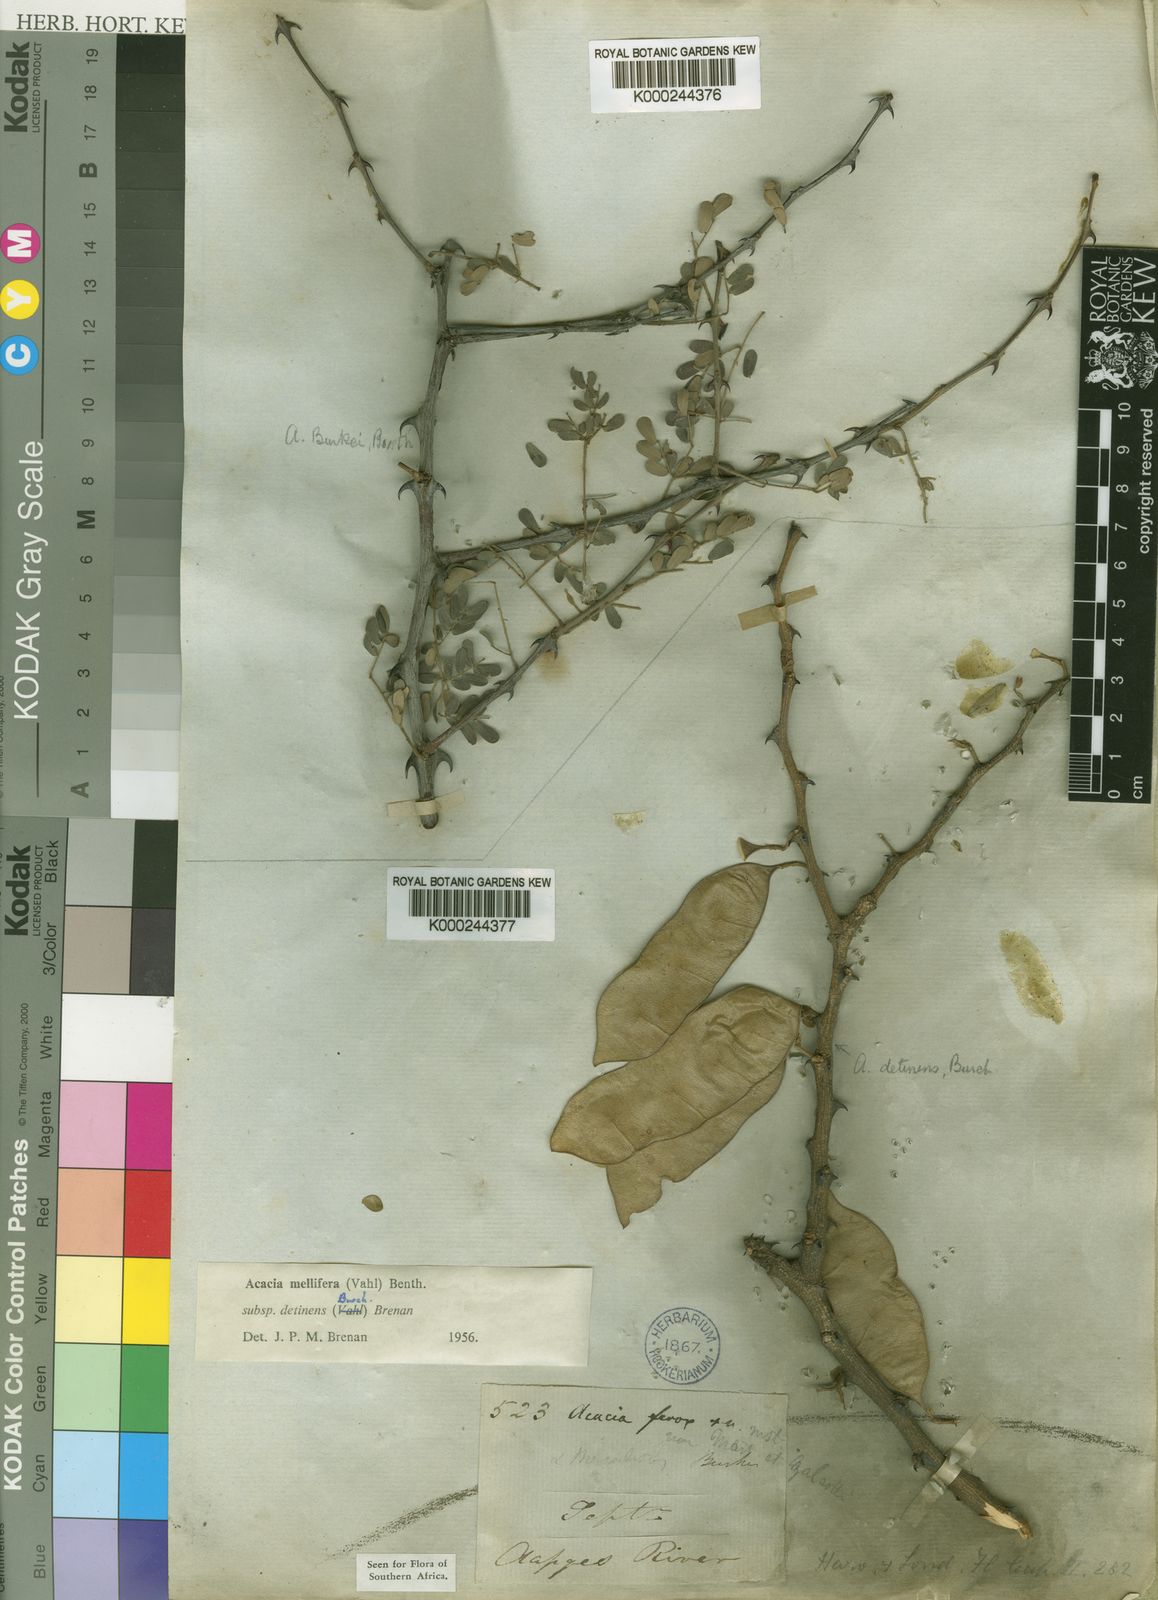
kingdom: Plantae
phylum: Tracheophyta
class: Magnoliopsida
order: Fabales
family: Fabaceae
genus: Senegalia
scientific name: Senegalia mellifera
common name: Hookthorn
